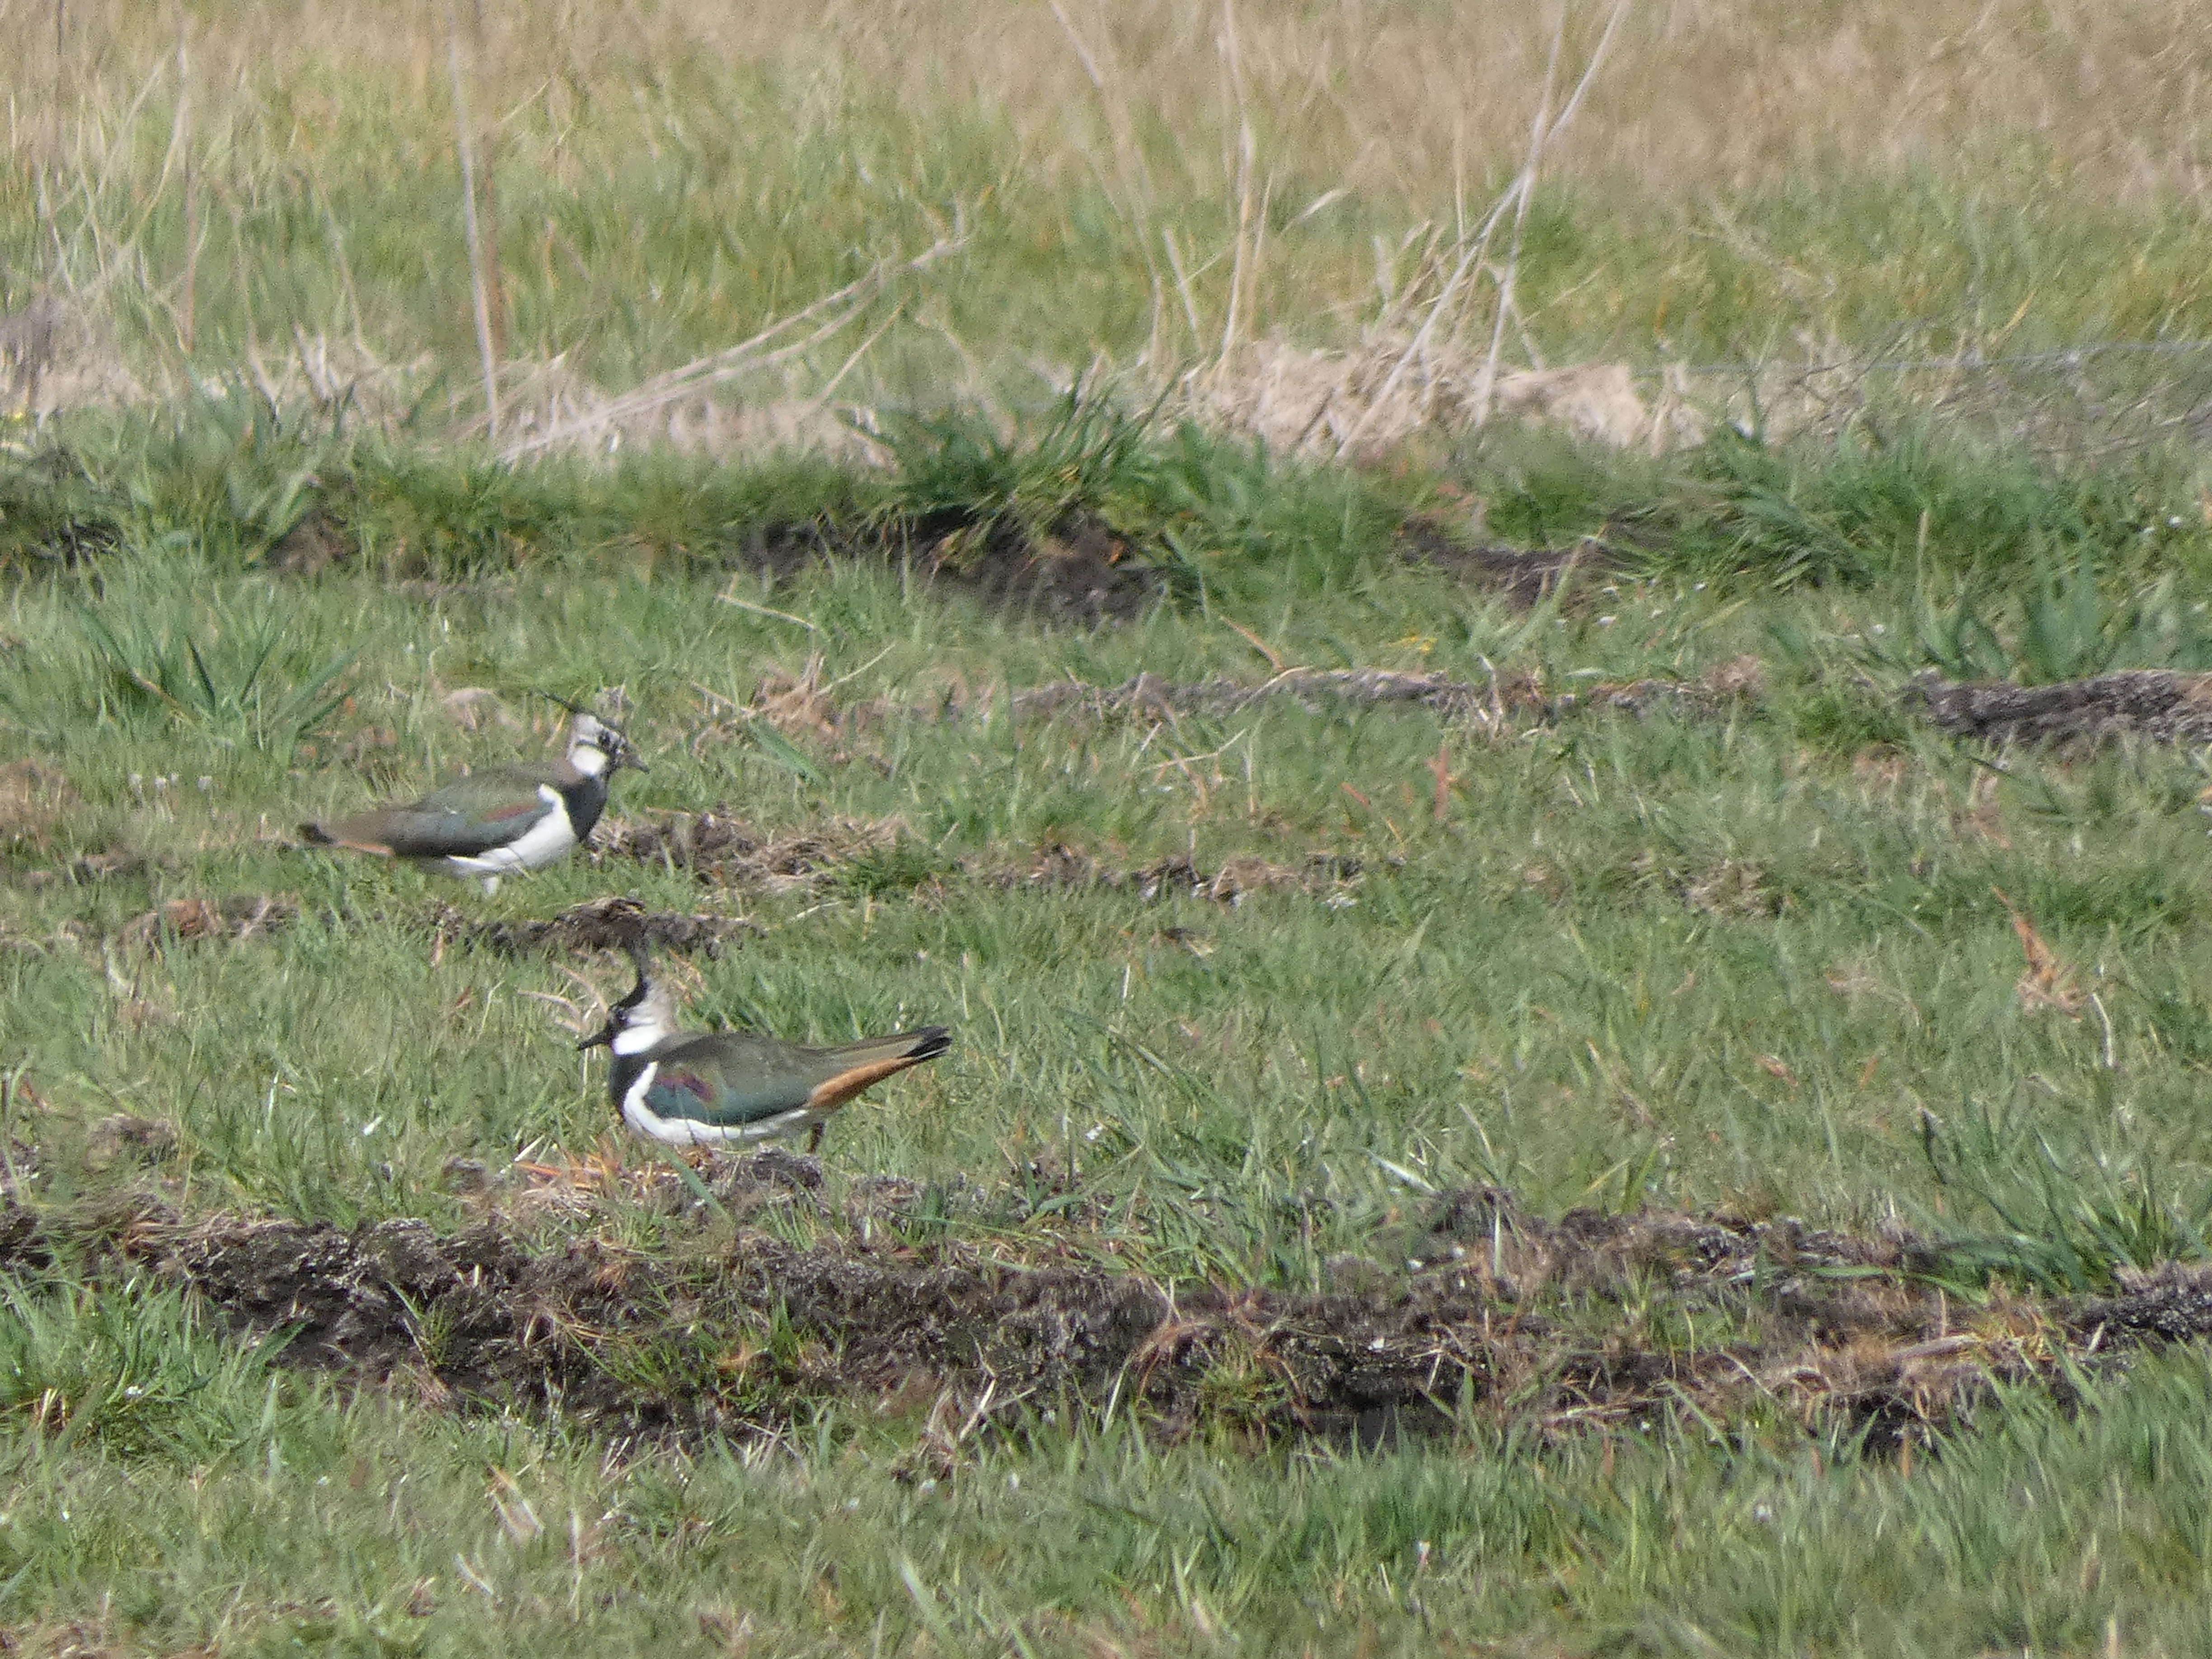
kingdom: Animalia
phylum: Chordata
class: Aves
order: Charadriiformes
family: Charadriidae
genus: Vanellus
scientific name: Vanellus vanellus
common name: Vibe
